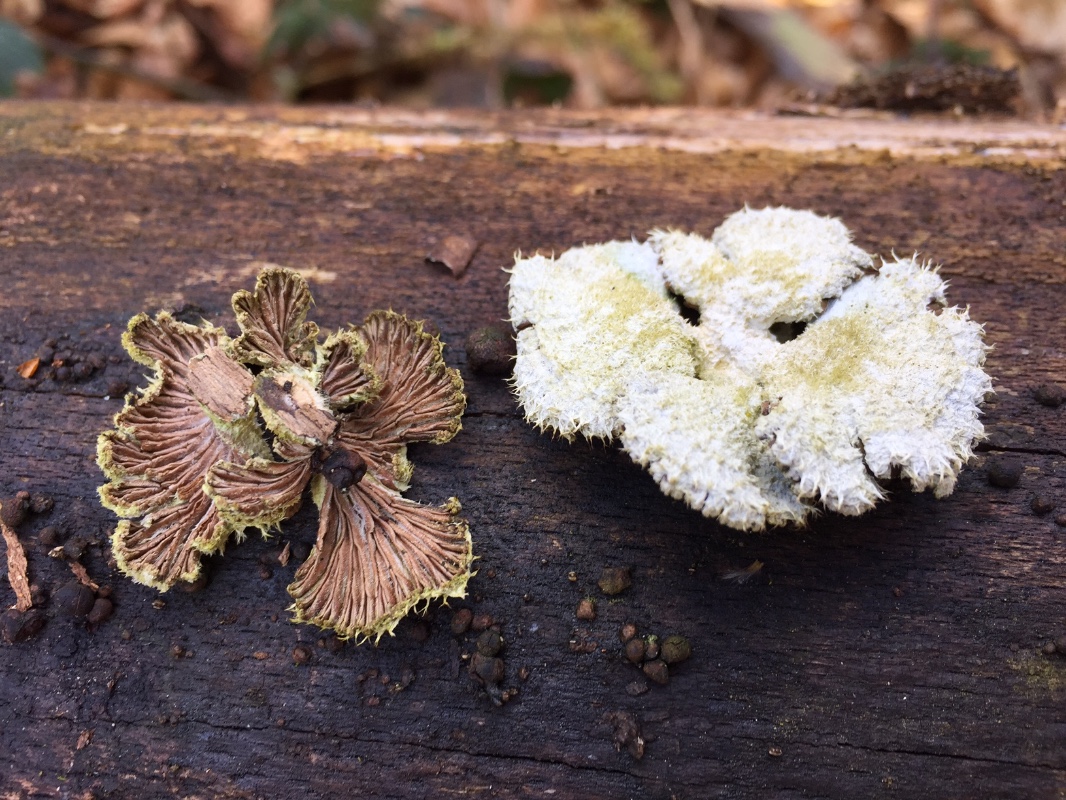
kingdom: Fungi
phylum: Basidiomycota
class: Agaricomycetes
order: Agaricales
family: Schizophyllaceae
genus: Schizophyllum
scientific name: Schizophyllum commune
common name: kløvblad
